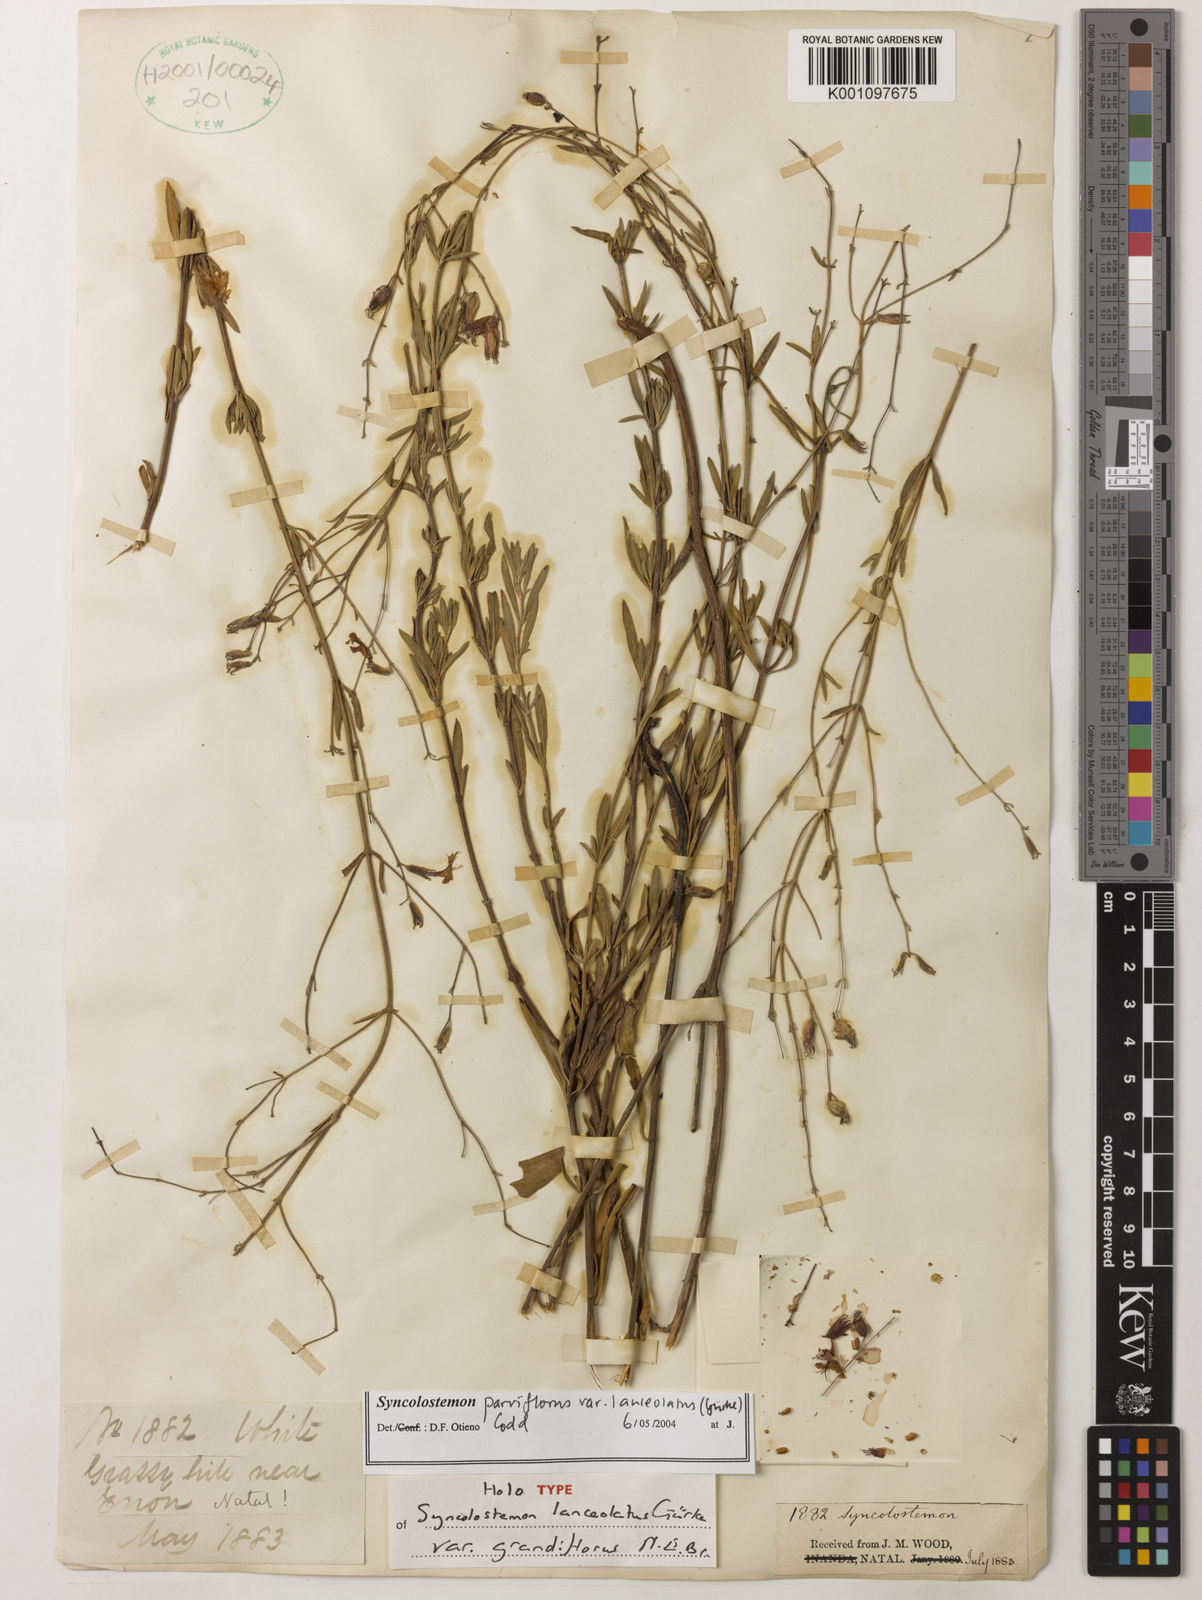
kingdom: Plantae
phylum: Tracheophyta
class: Magnoliopsida
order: Lamiales
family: Lamiaceae
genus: Syncolostemon
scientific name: Syncolostemon parviflorus
